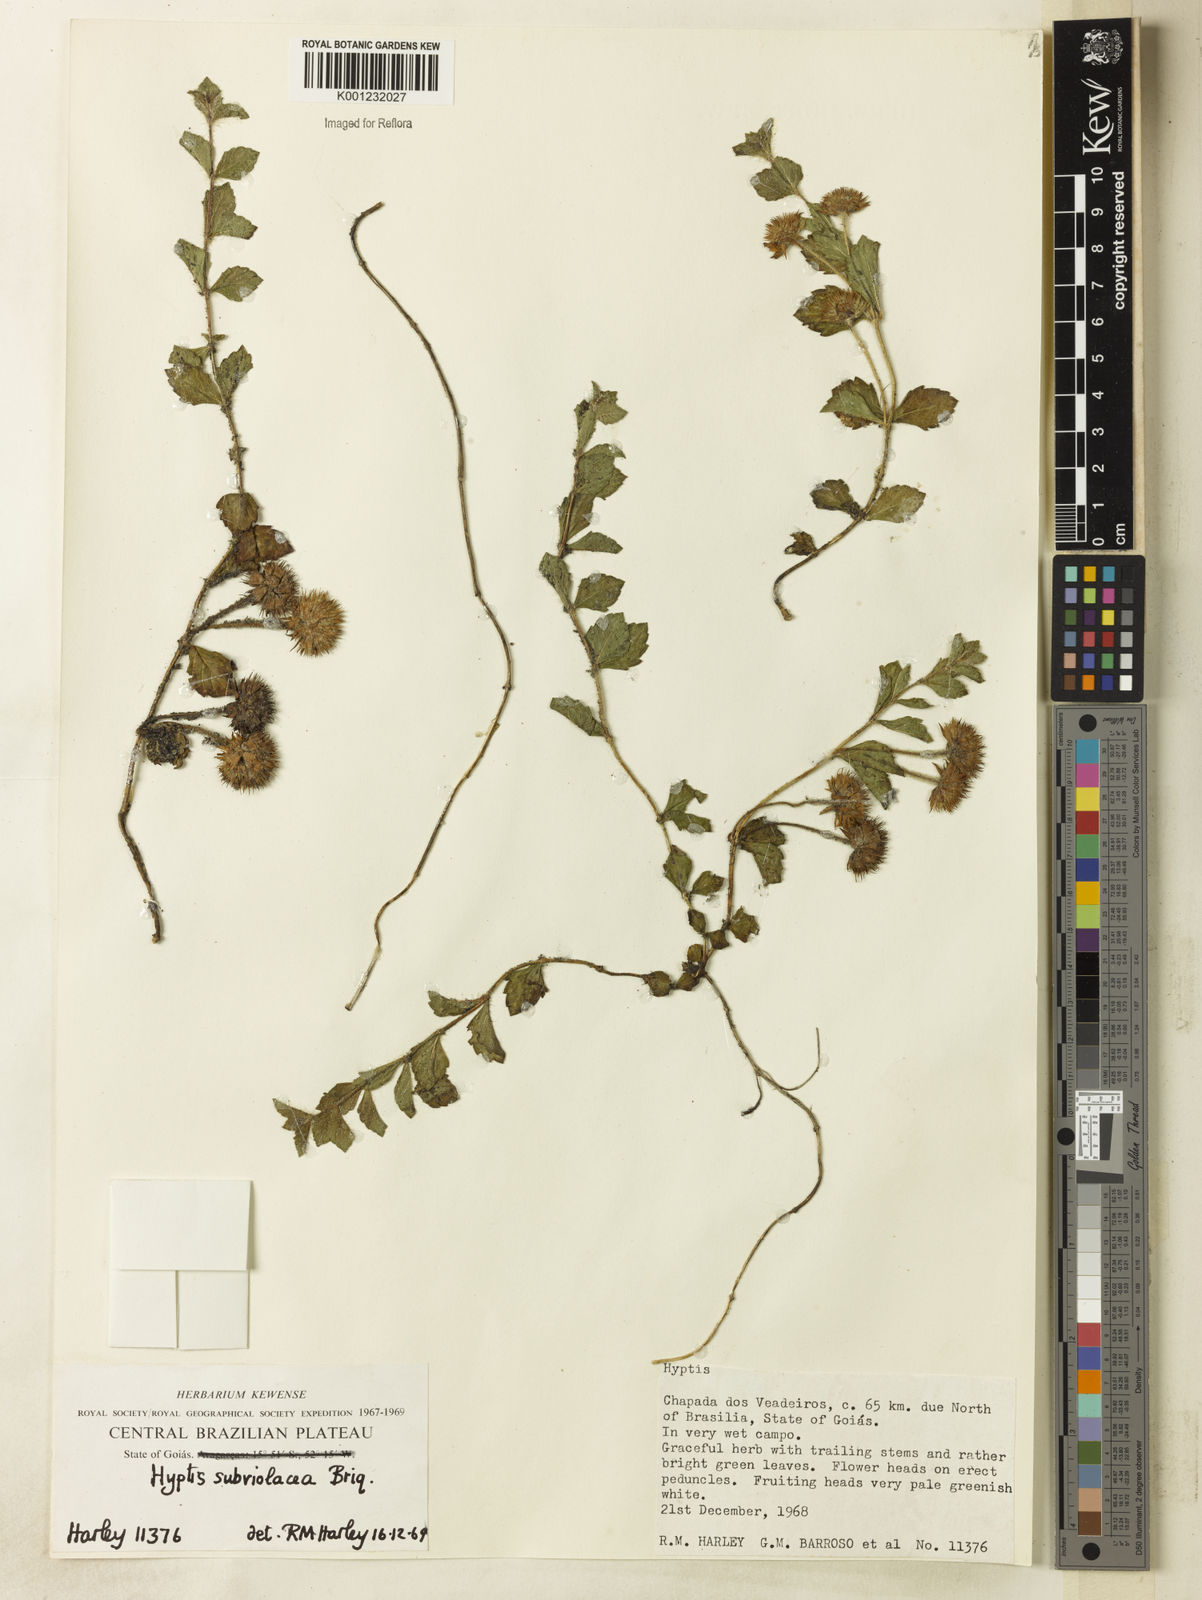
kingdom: Plantae
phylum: Tracheophyta
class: Magnoliopsida
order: Lamiales
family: Lamiaceae
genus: Hyptis
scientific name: Hyptis subviolacea
